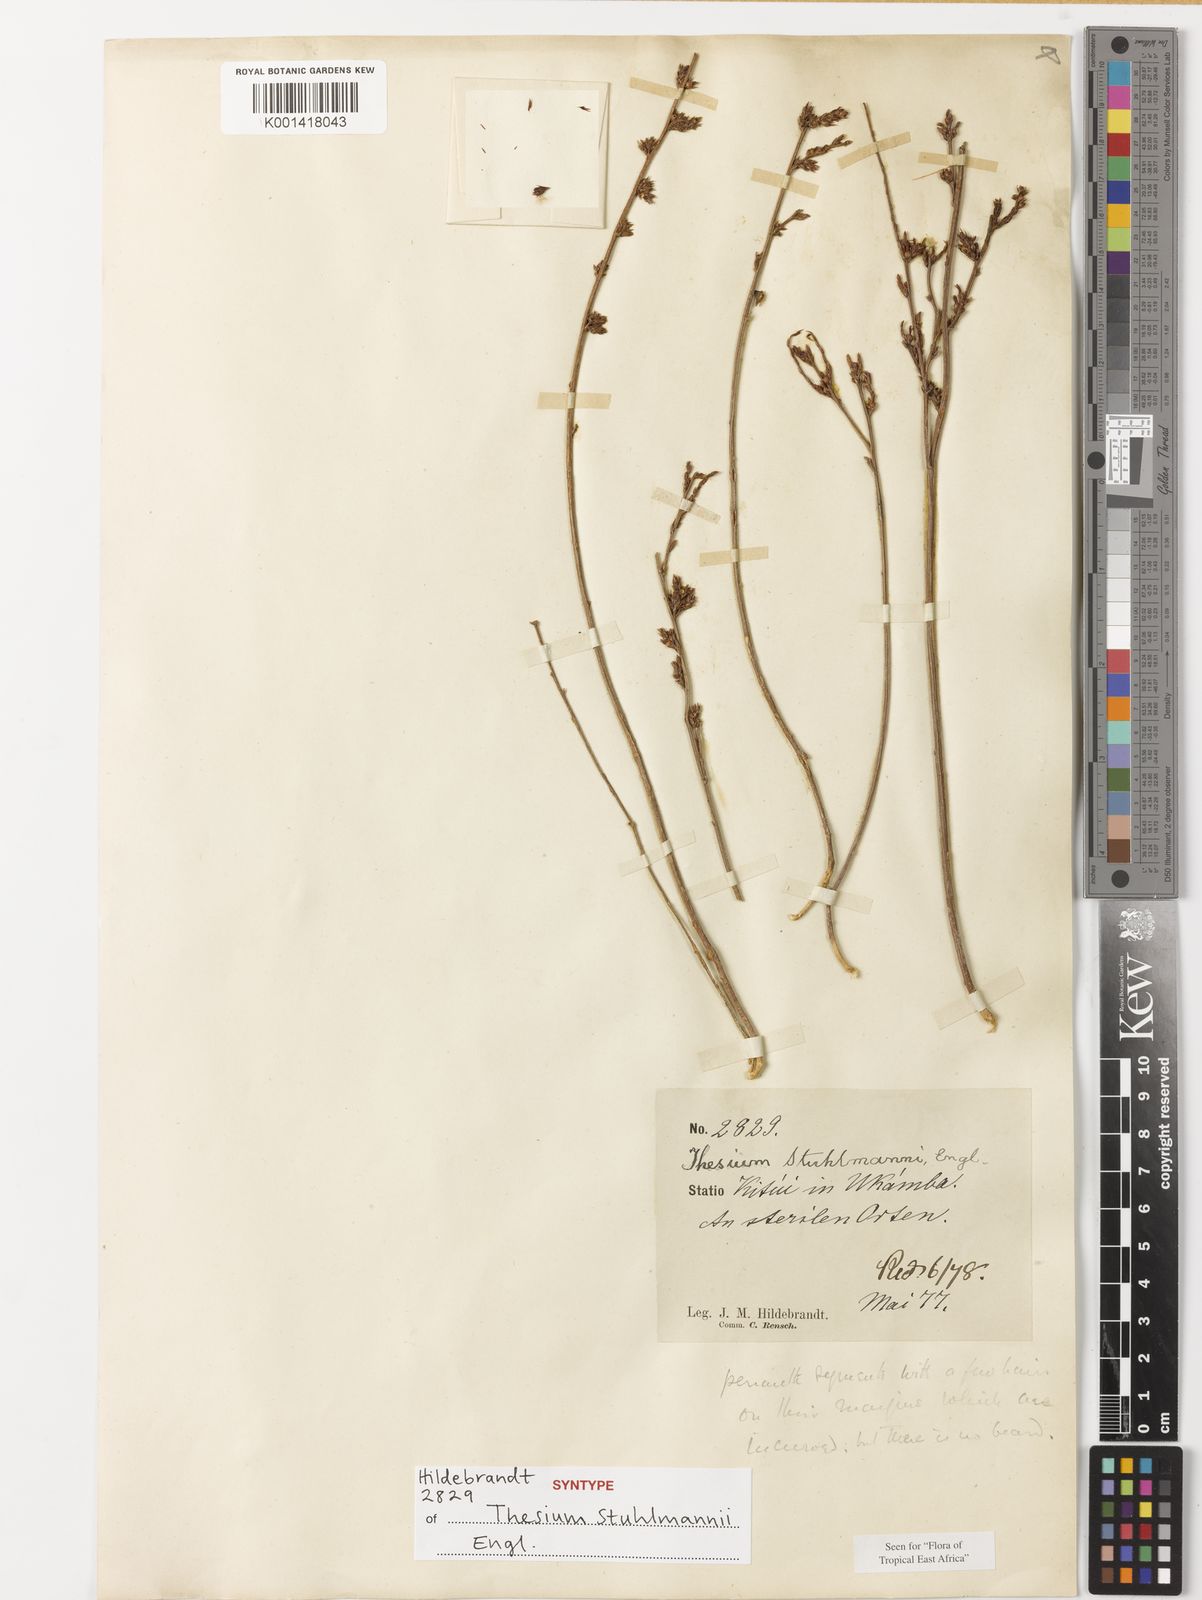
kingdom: Plantae
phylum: Tracheophyta
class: Magnoliopsida
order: Santalales
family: Thesiaceae
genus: Thesium
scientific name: Thesium stuhlmannii
